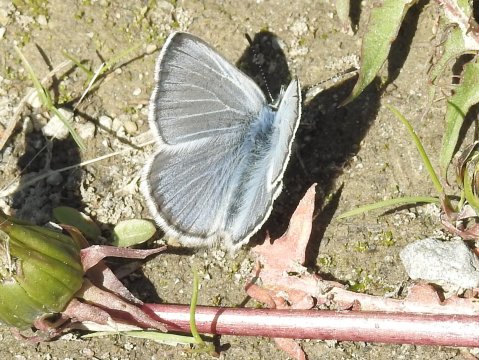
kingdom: Animalia
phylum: Arthropoda
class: Insecta
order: Lepidoptera
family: Lycaenidae
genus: Glaucopsyche
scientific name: Glaucopsyche lygdamus
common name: Silvery Blue
